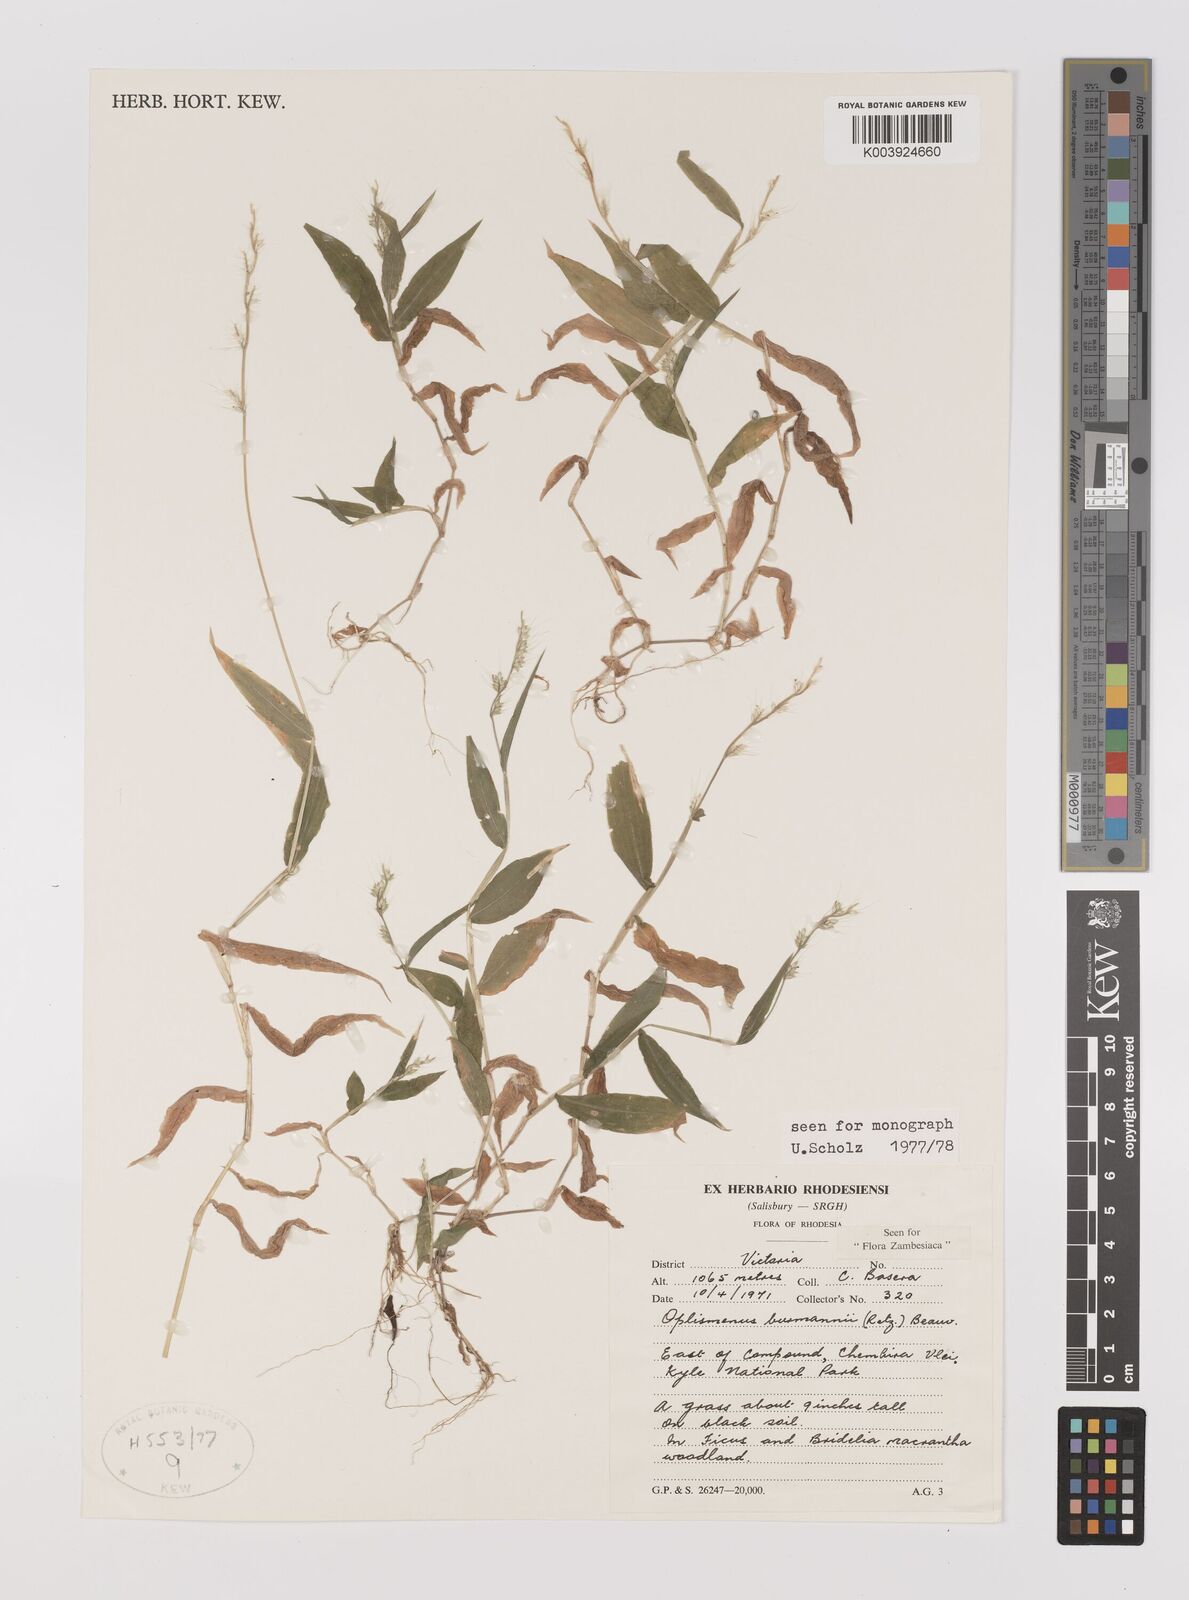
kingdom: Plantae
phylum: Tracheophyta
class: Liliopsida
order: Poales
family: Poaceae
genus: Oplismenus
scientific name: Oplismenus burmanni
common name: Burmann's basketgrass
